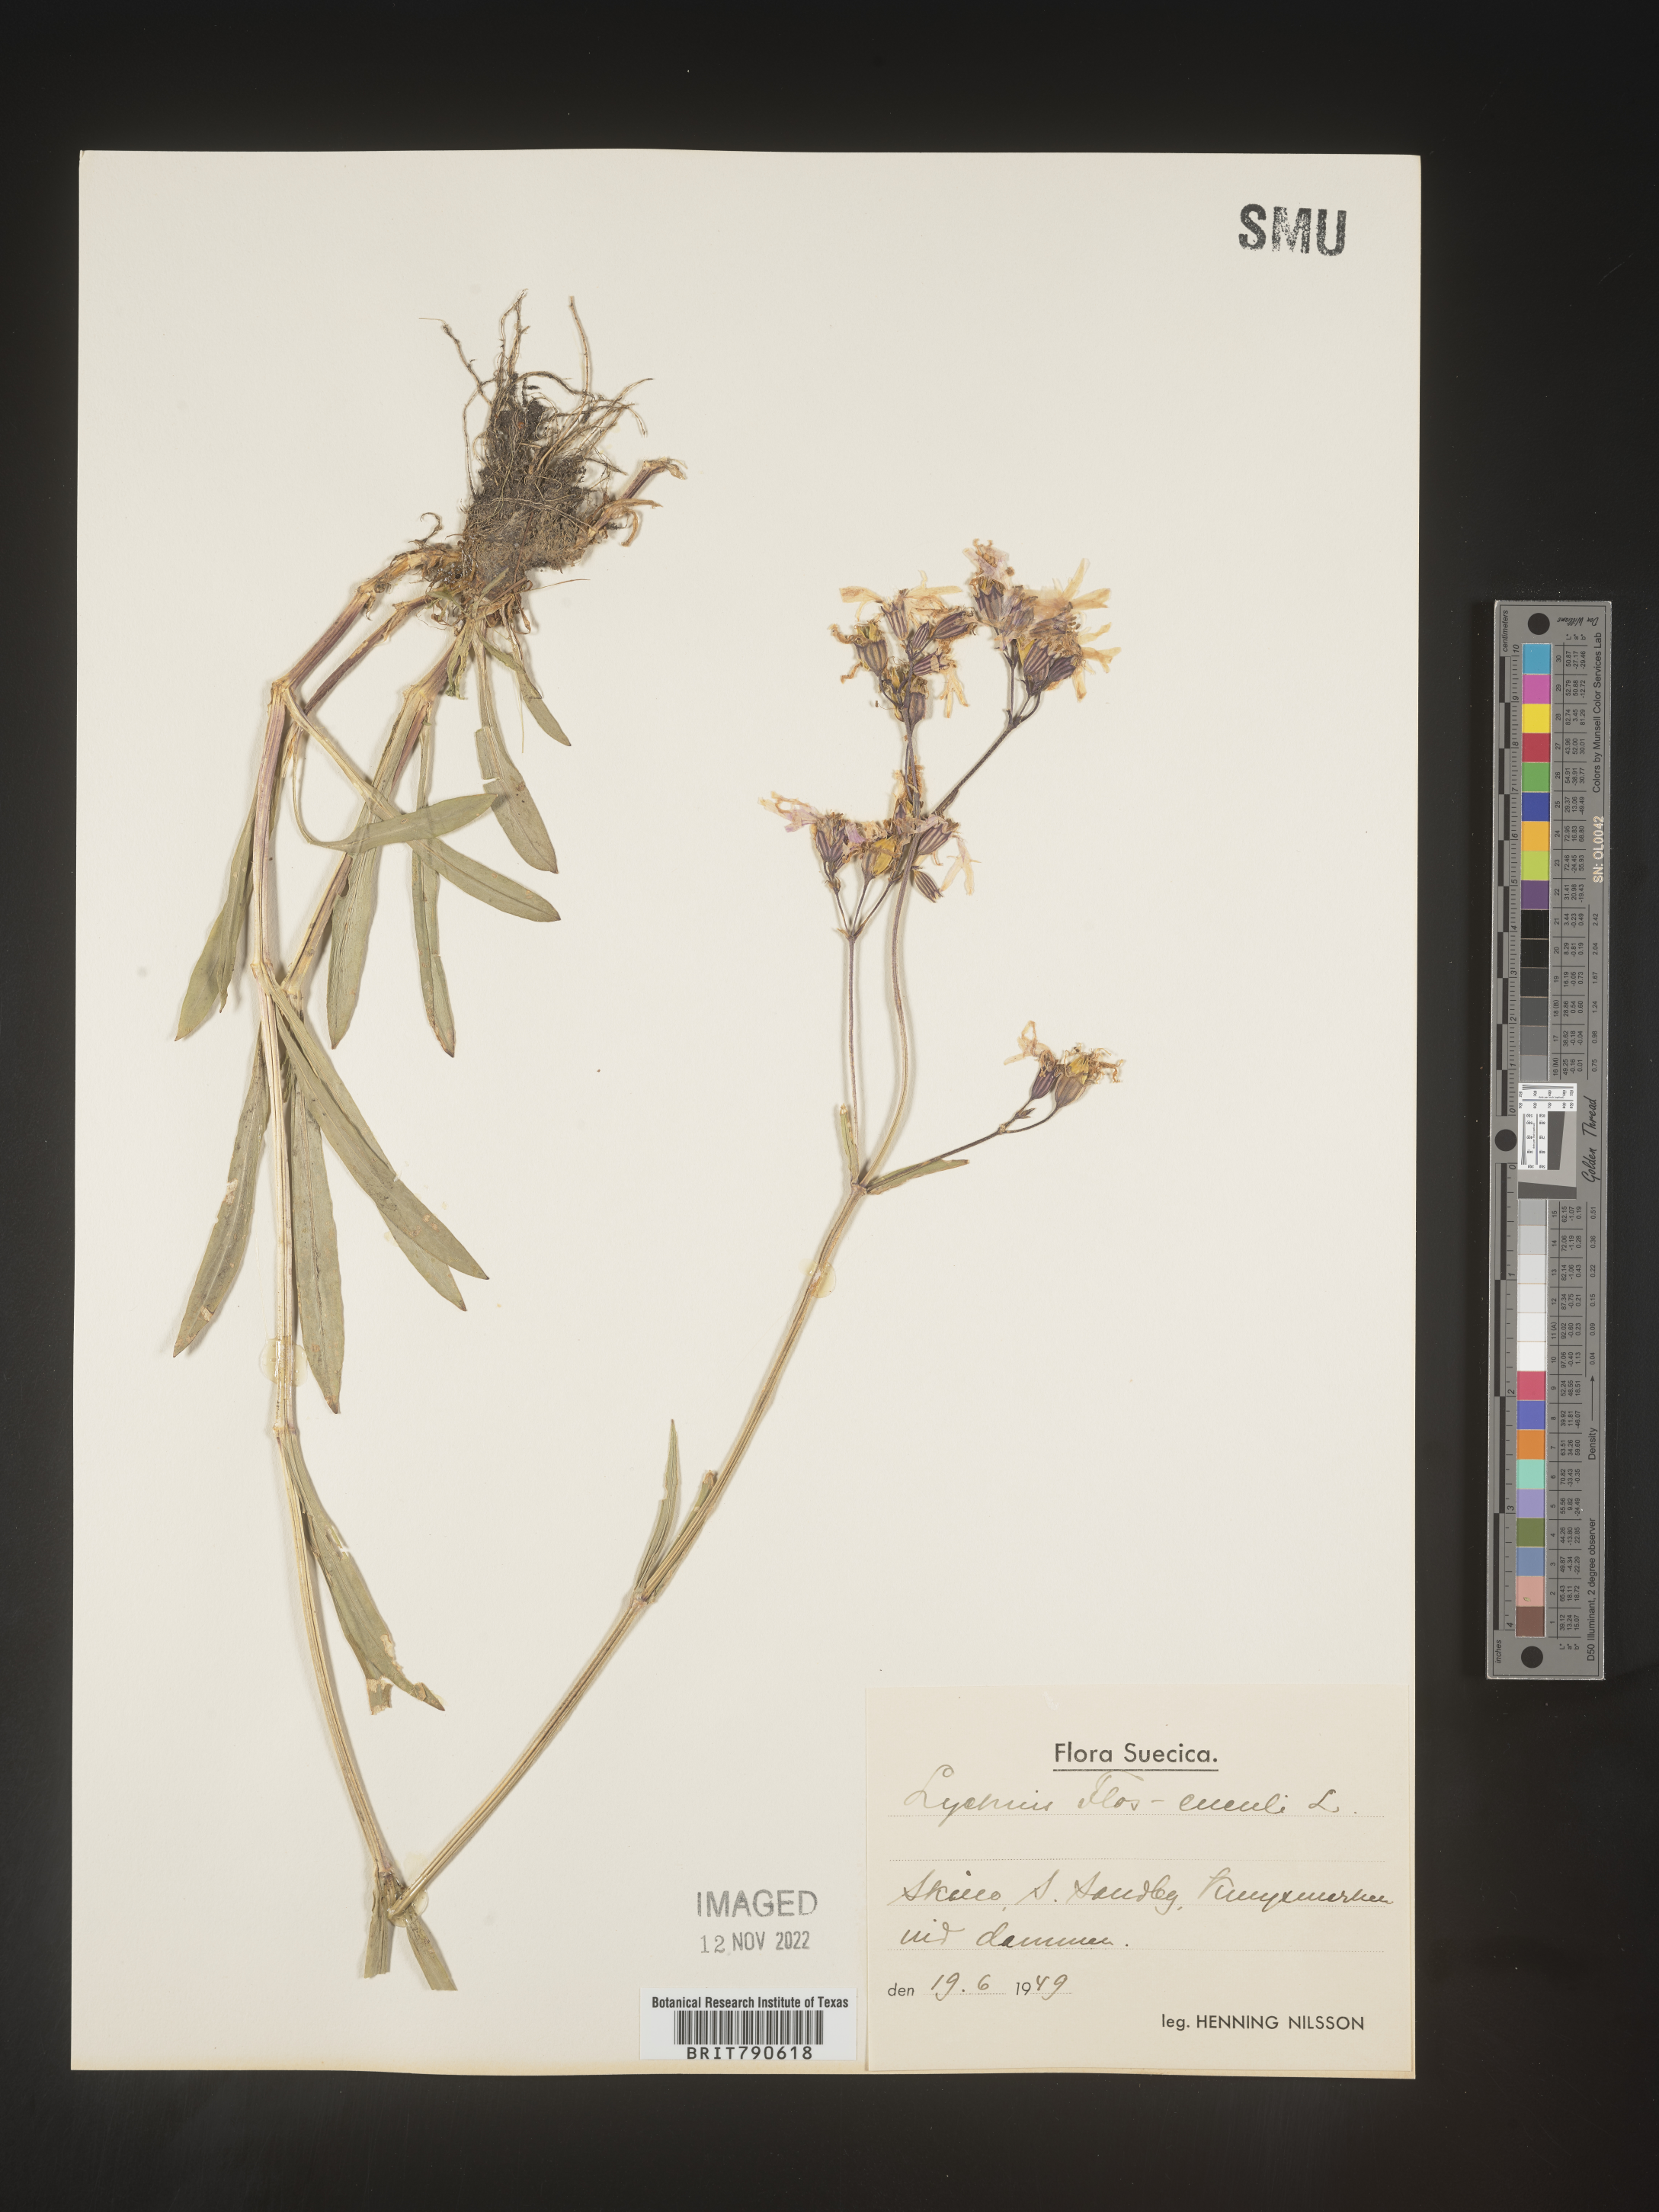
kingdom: Plantae
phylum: Tracheophyta
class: Magnoliopsida
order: Caryophyllales
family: Caryophyllaceae
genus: Silene
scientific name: Silene
